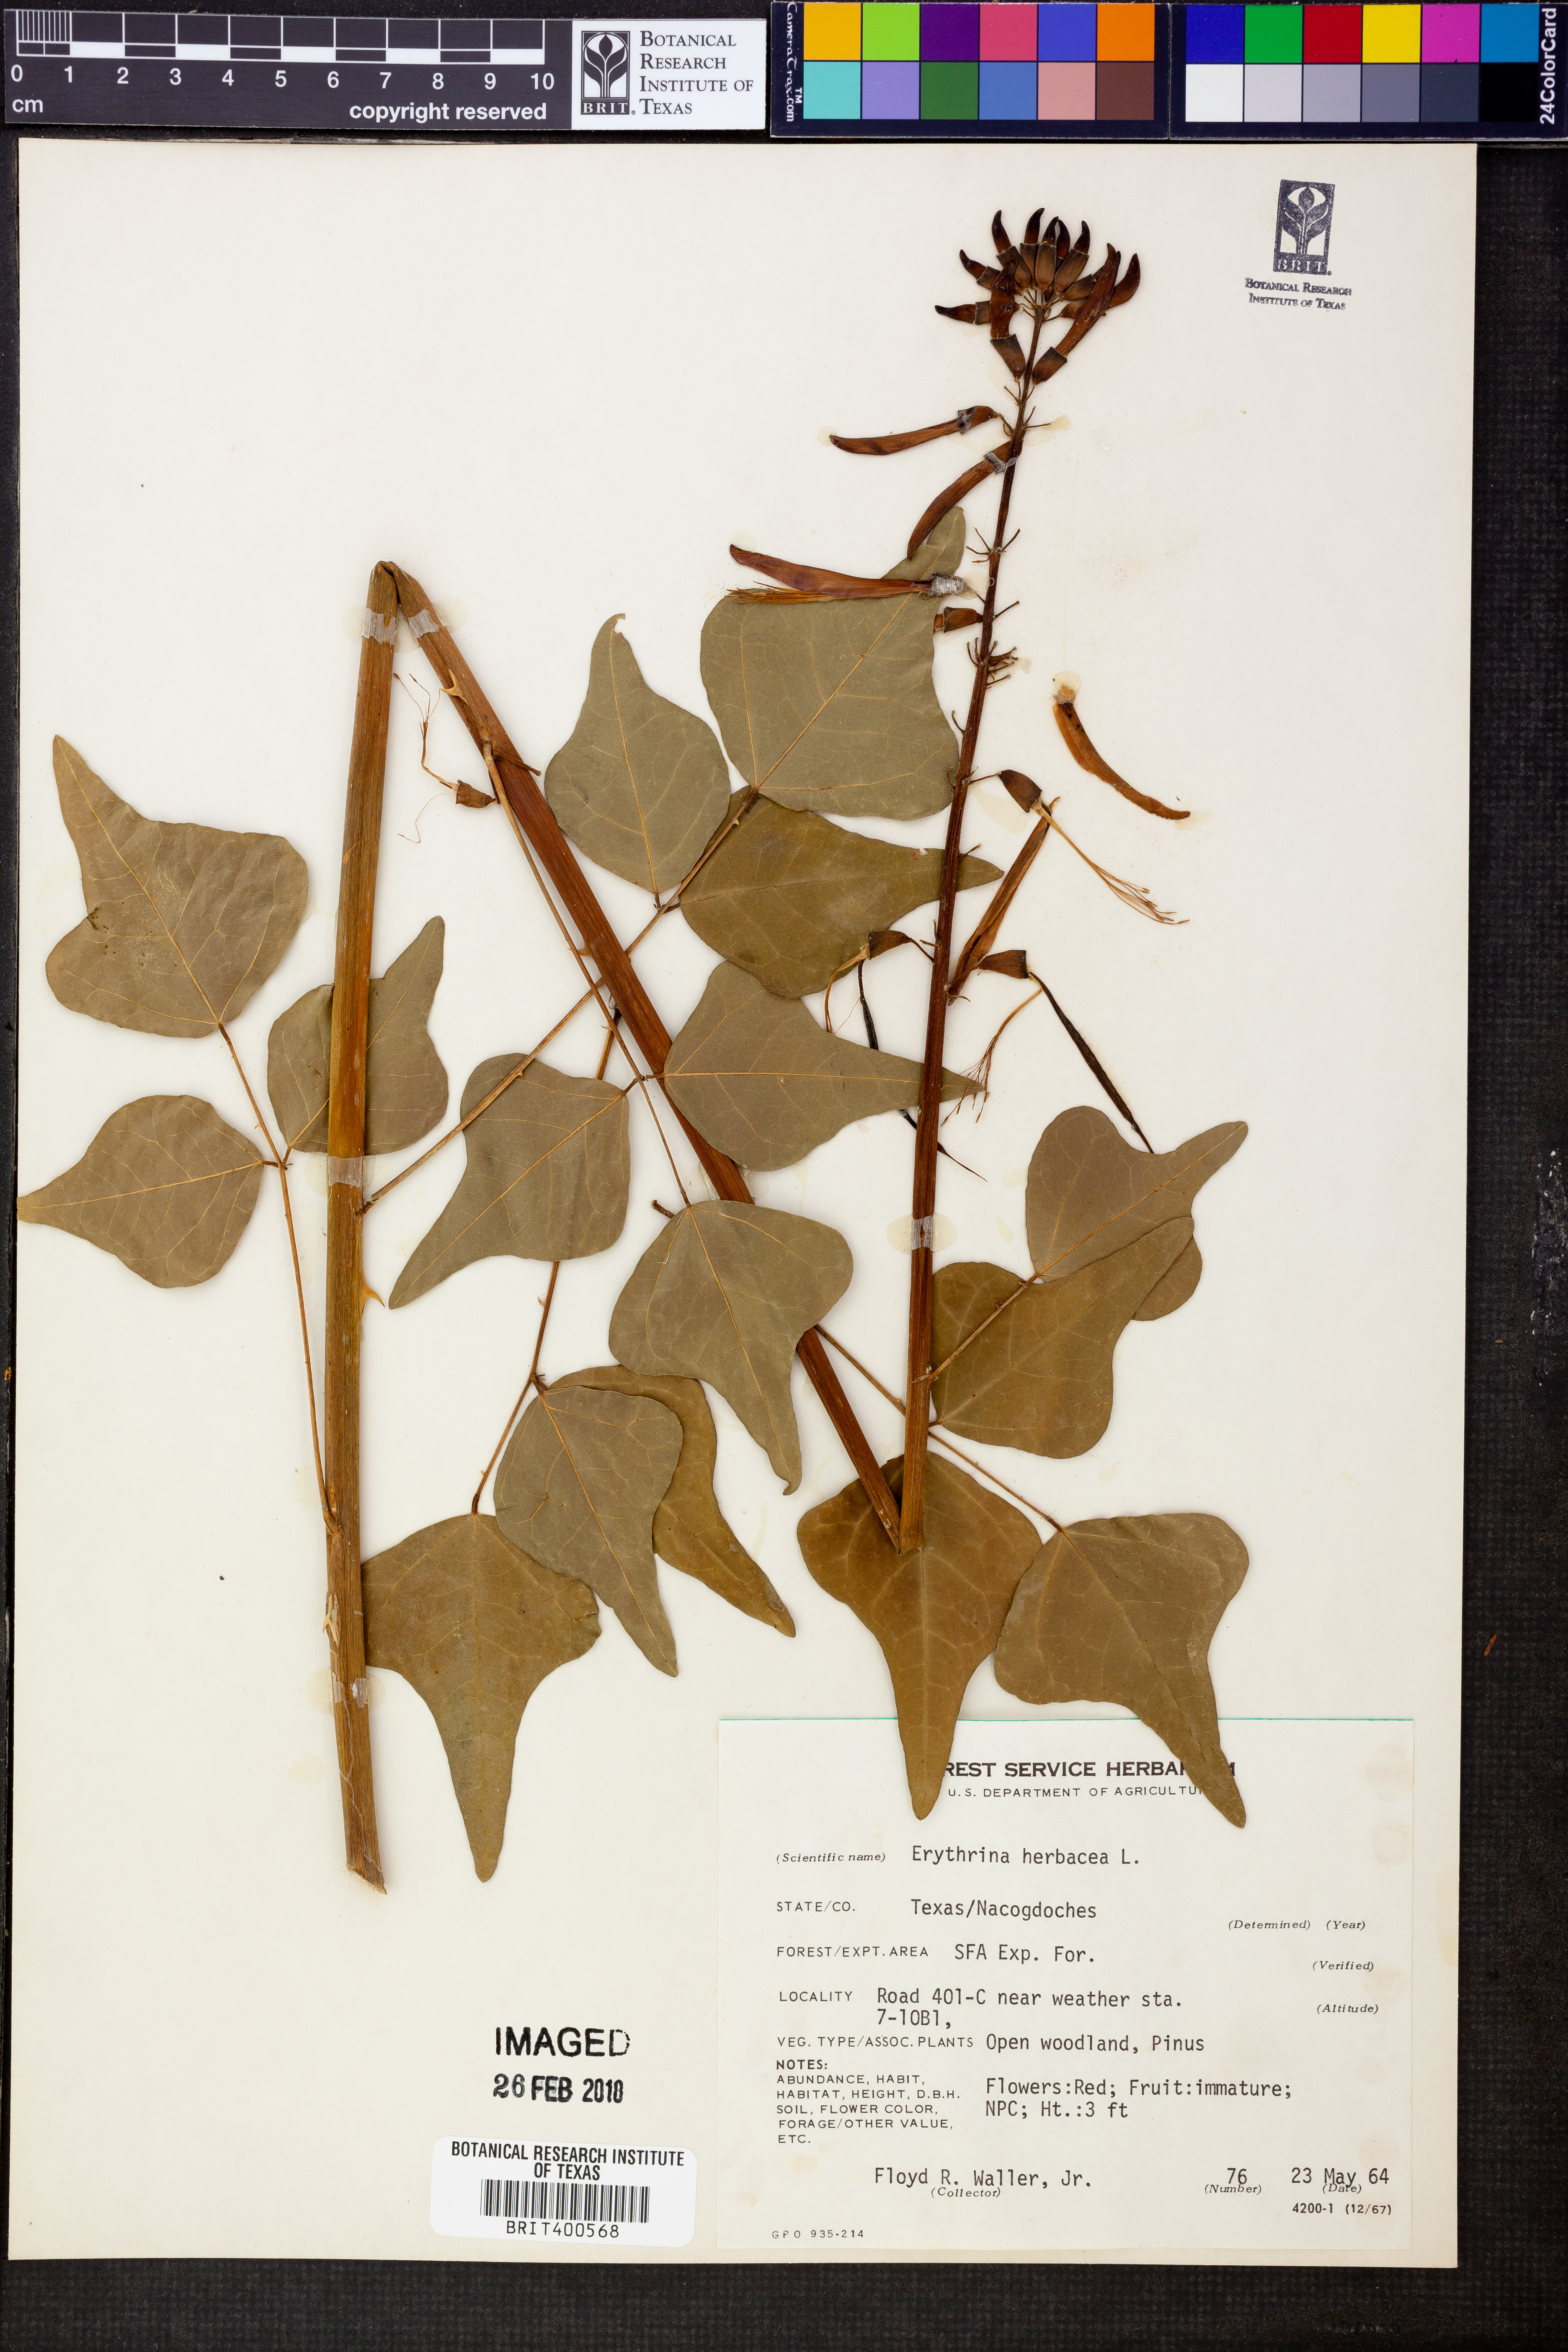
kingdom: Plantae
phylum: Tracheophyta
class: Magnoliopsida
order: Fabales
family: Fabaceae
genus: Erythrina
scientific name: Erythrina herbacea
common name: Coral-bean
